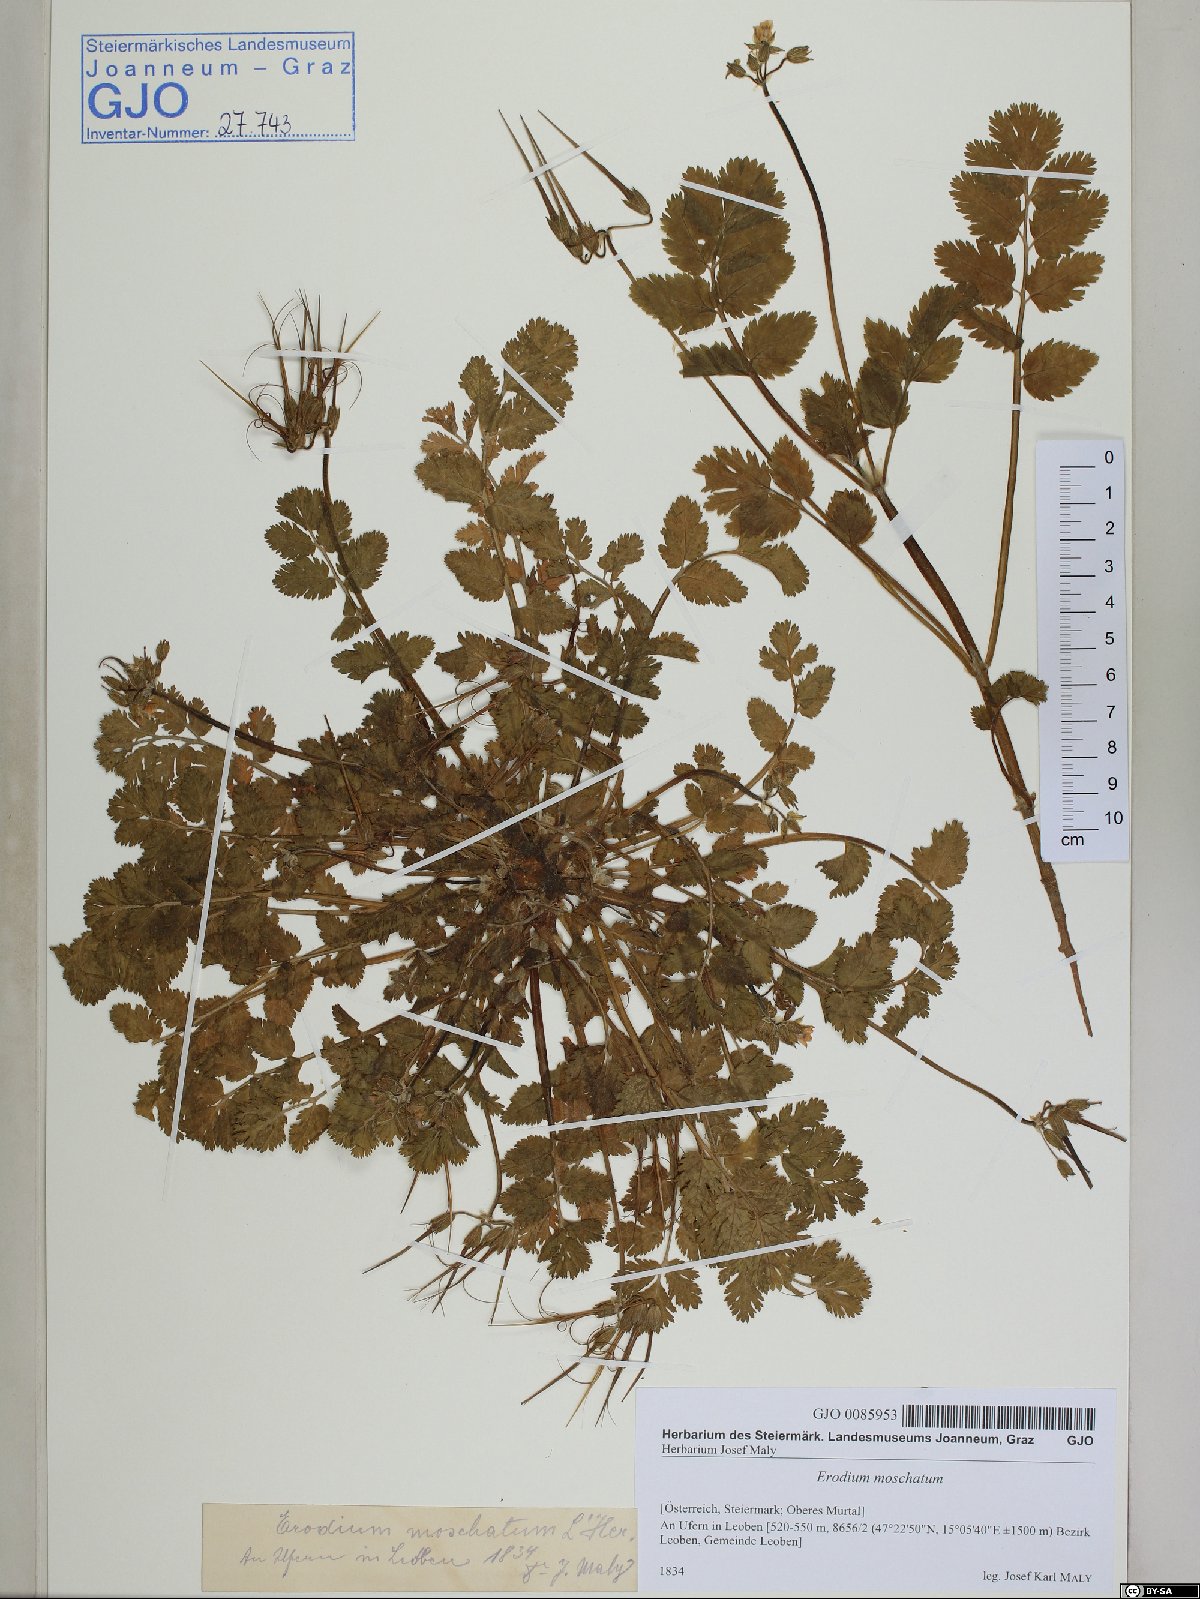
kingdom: Plantae
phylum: Tracheophyta
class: Magnoliopsida
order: Geraniales
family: Geraniaceae
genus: Erodium
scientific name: Erodium moschatum
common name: Musk stork's-bill
